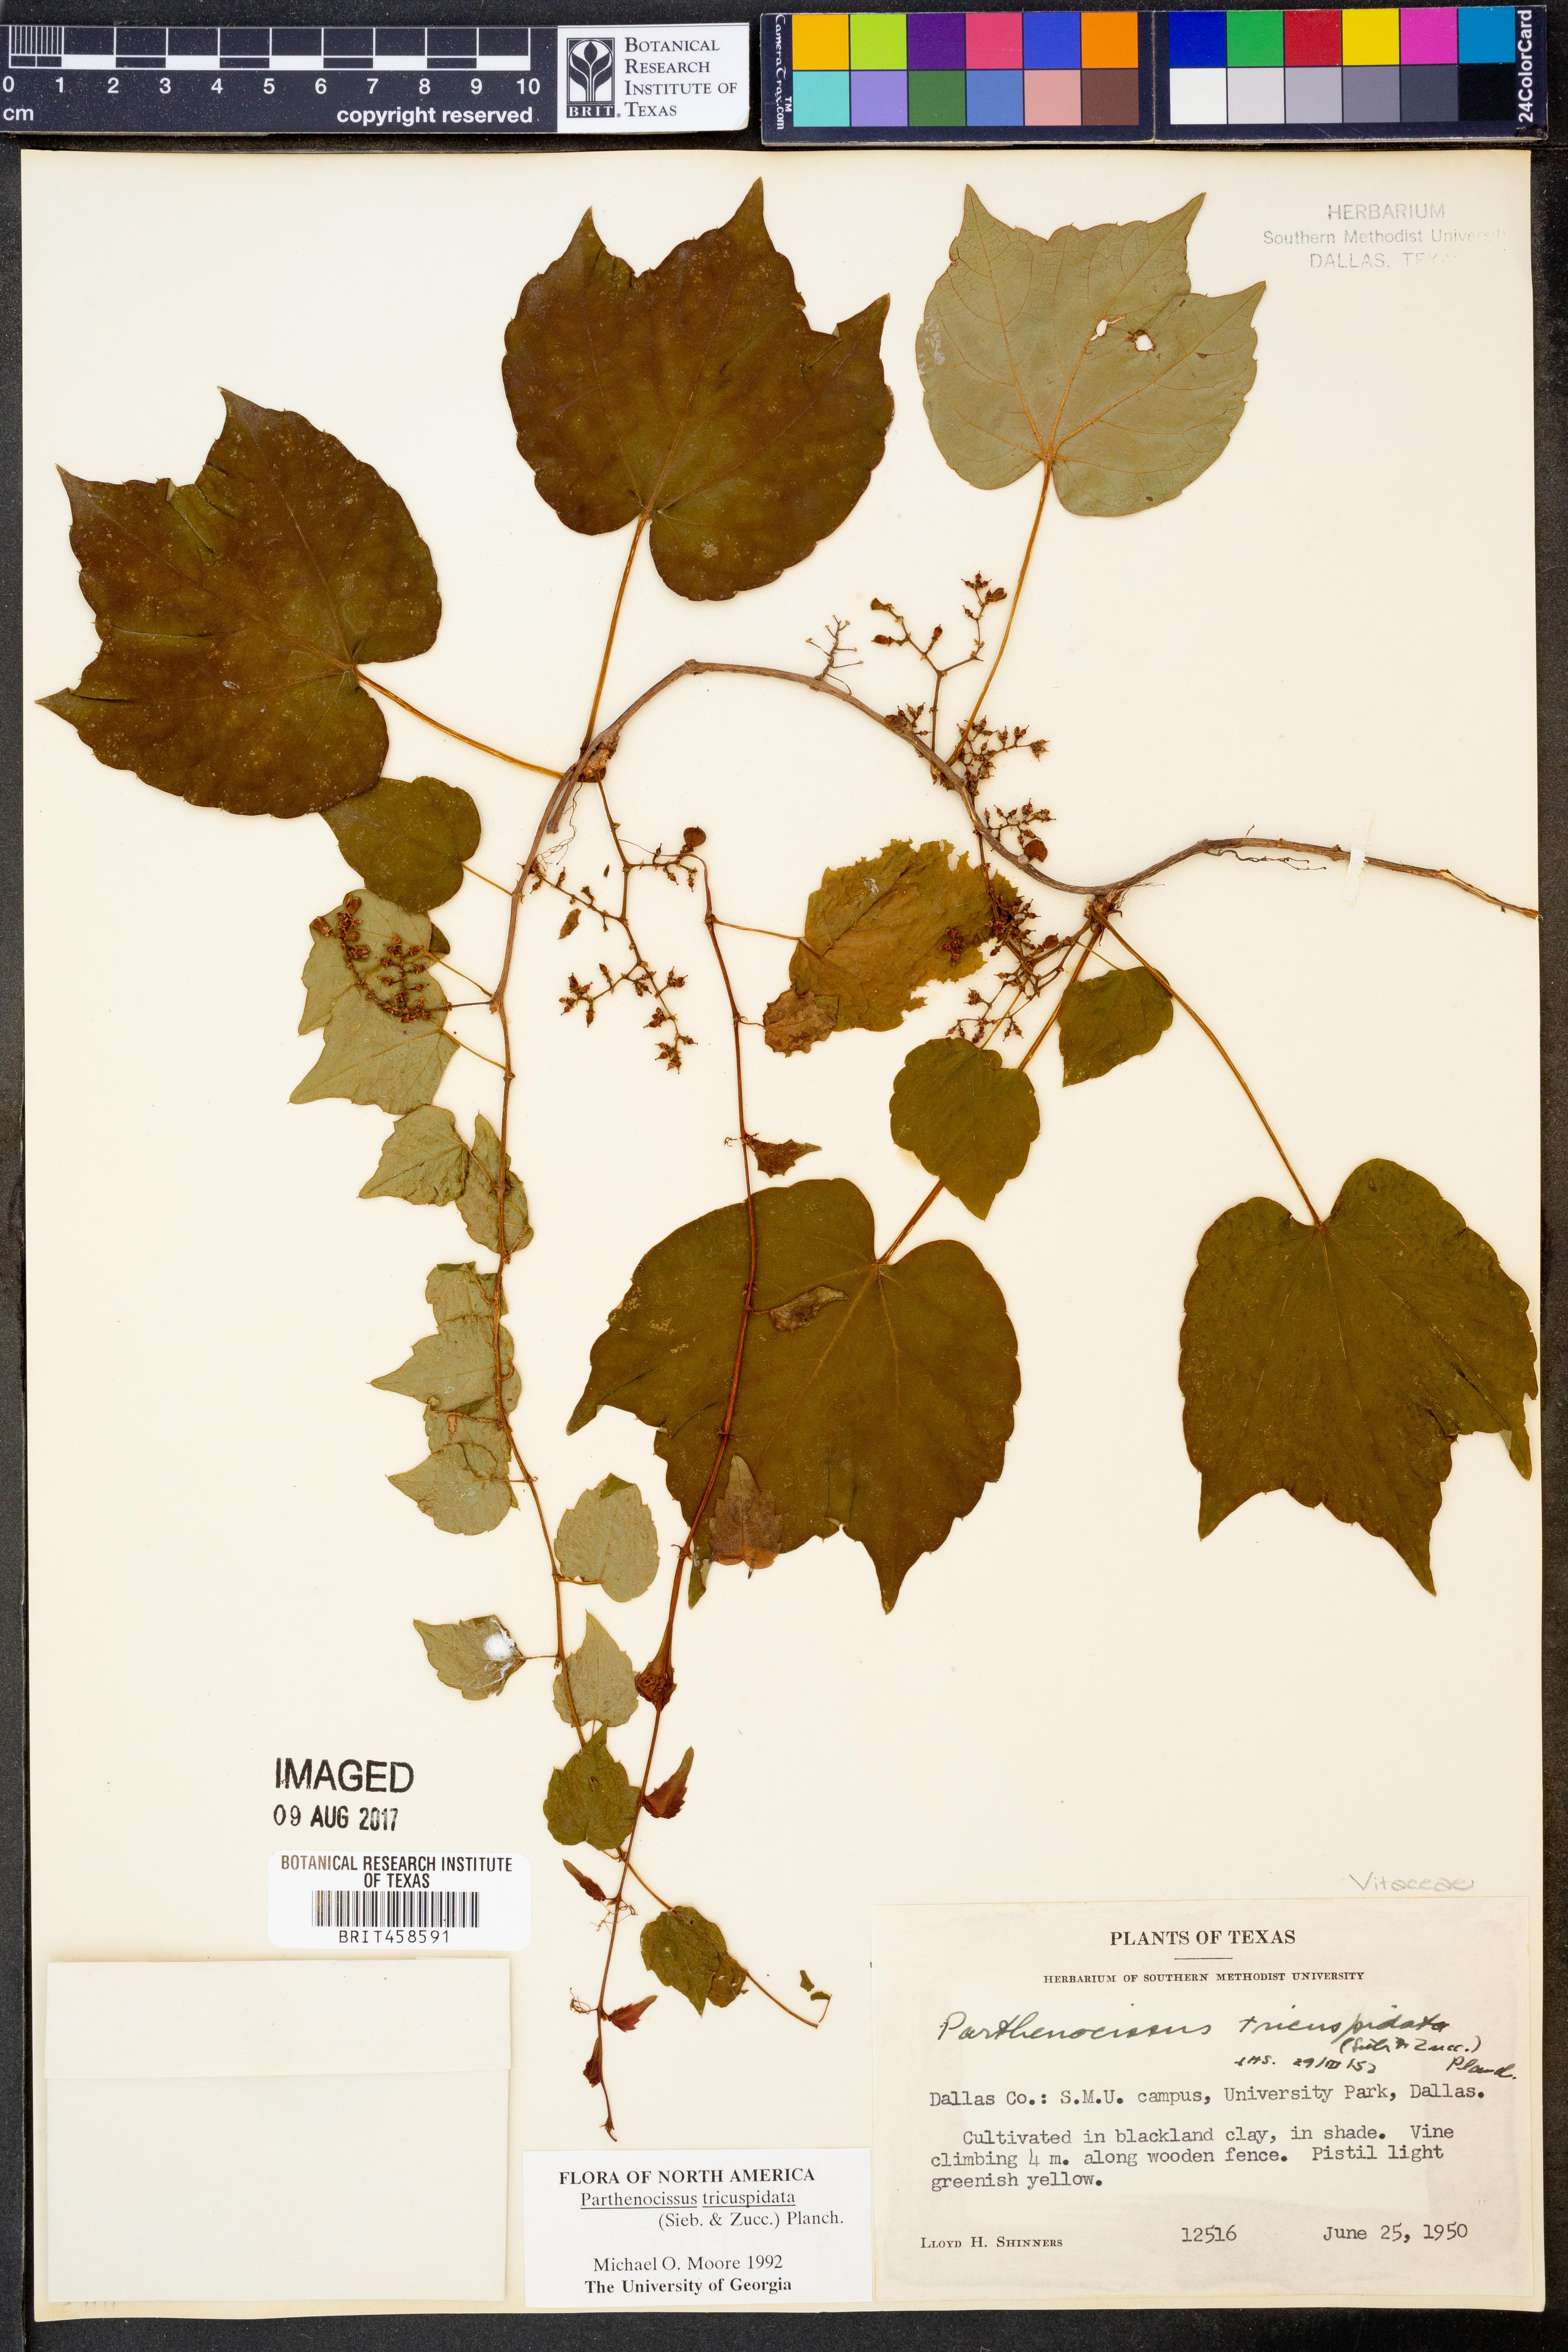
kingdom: Plantae
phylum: Tracheophyta
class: Magnoliopsida
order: Vitales
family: Vitaceae
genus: Parthenocissus
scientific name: Parthenocissus tricuspidata
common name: Boston ivy
